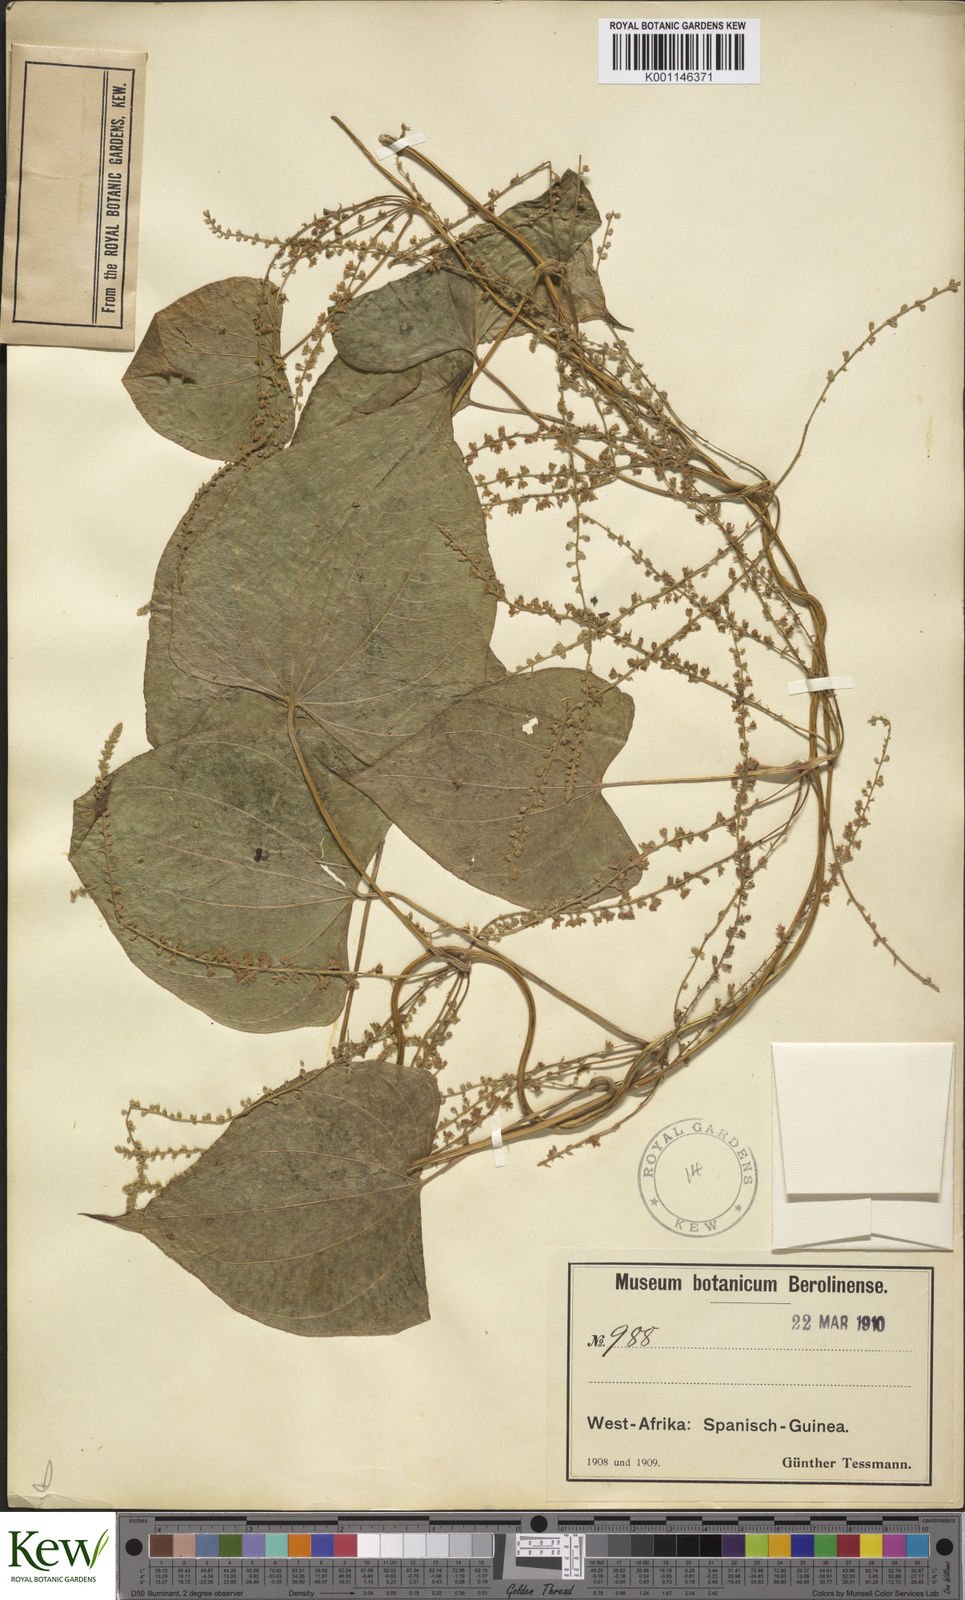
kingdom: Plantae
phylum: Tracheophyta
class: Liliopsida
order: Dioscoreales
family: Dioscoreaceae
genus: Dioscorea
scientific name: Dioscorea preussii
